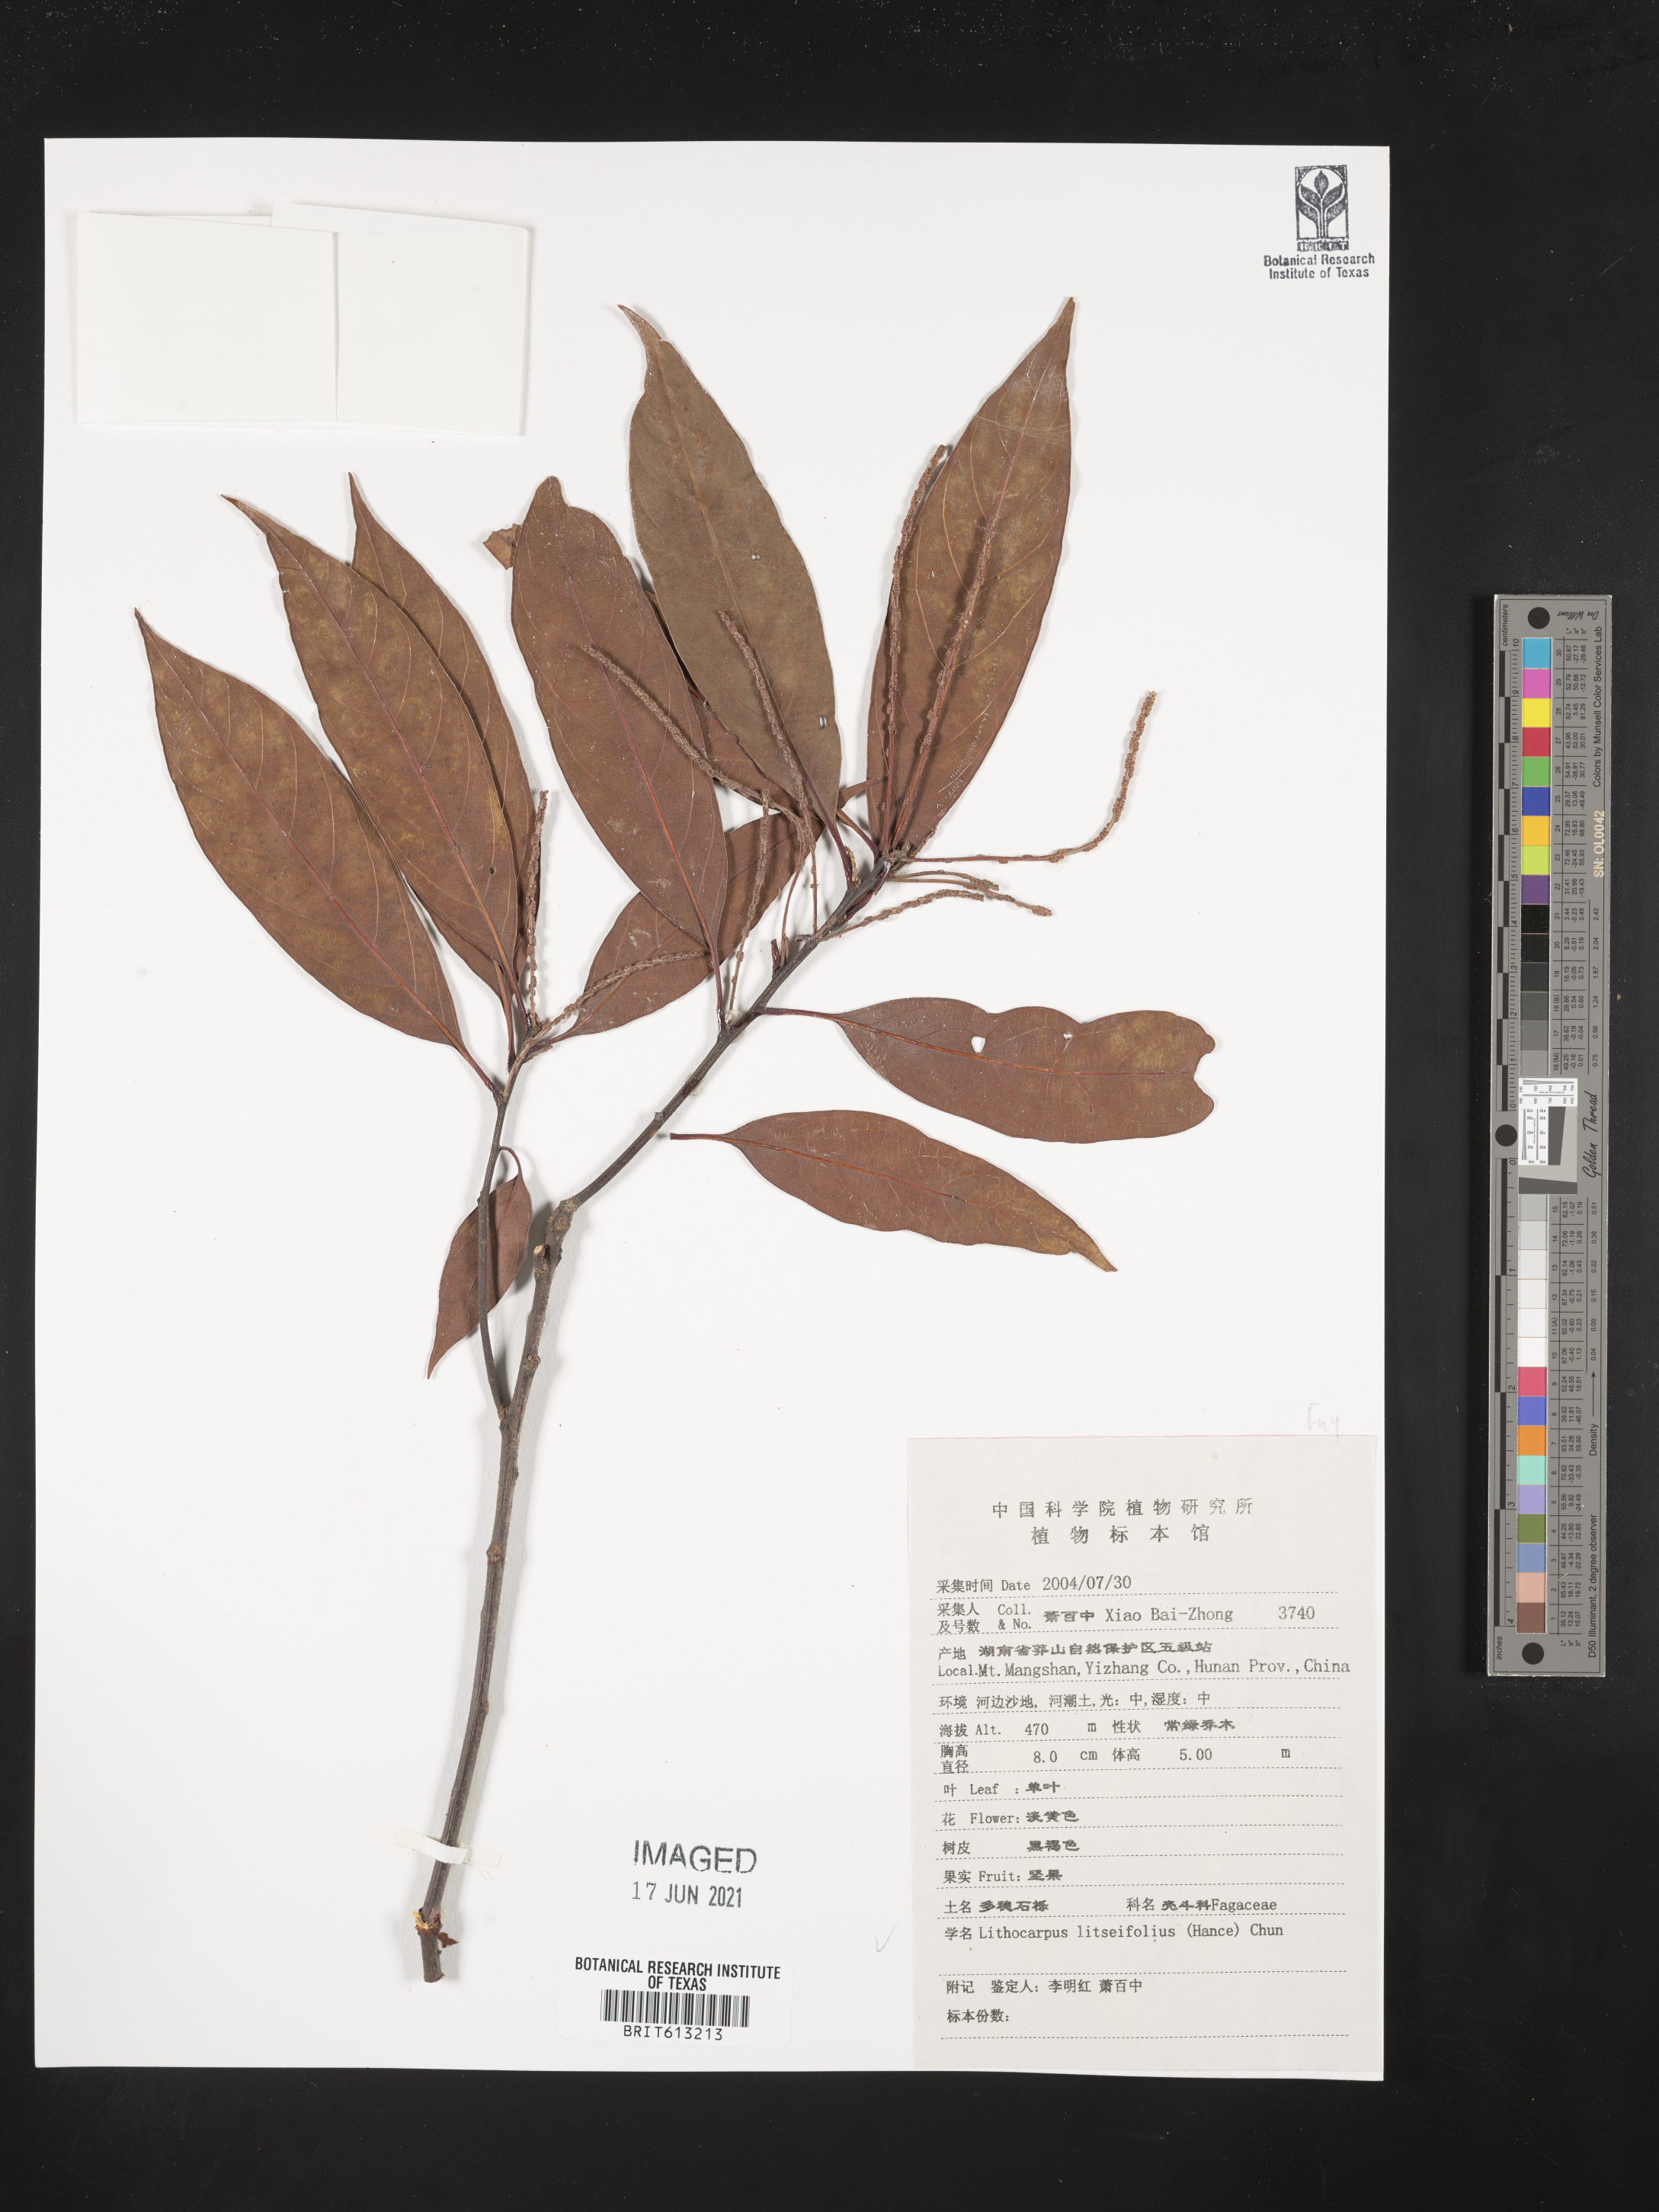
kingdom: Plantae
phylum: Tracheophyta
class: Magnoliopsida
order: Fagales
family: Fagaceae
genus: Lithocarpus
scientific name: Lithocarpus litseifolius
